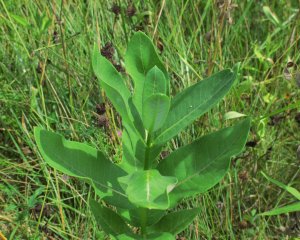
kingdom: Animalia
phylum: Arthropoda
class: Insecta
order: Lepidoptera
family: Nymphalidae
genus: Danaus
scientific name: Danaus plexippus
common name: Monarch
